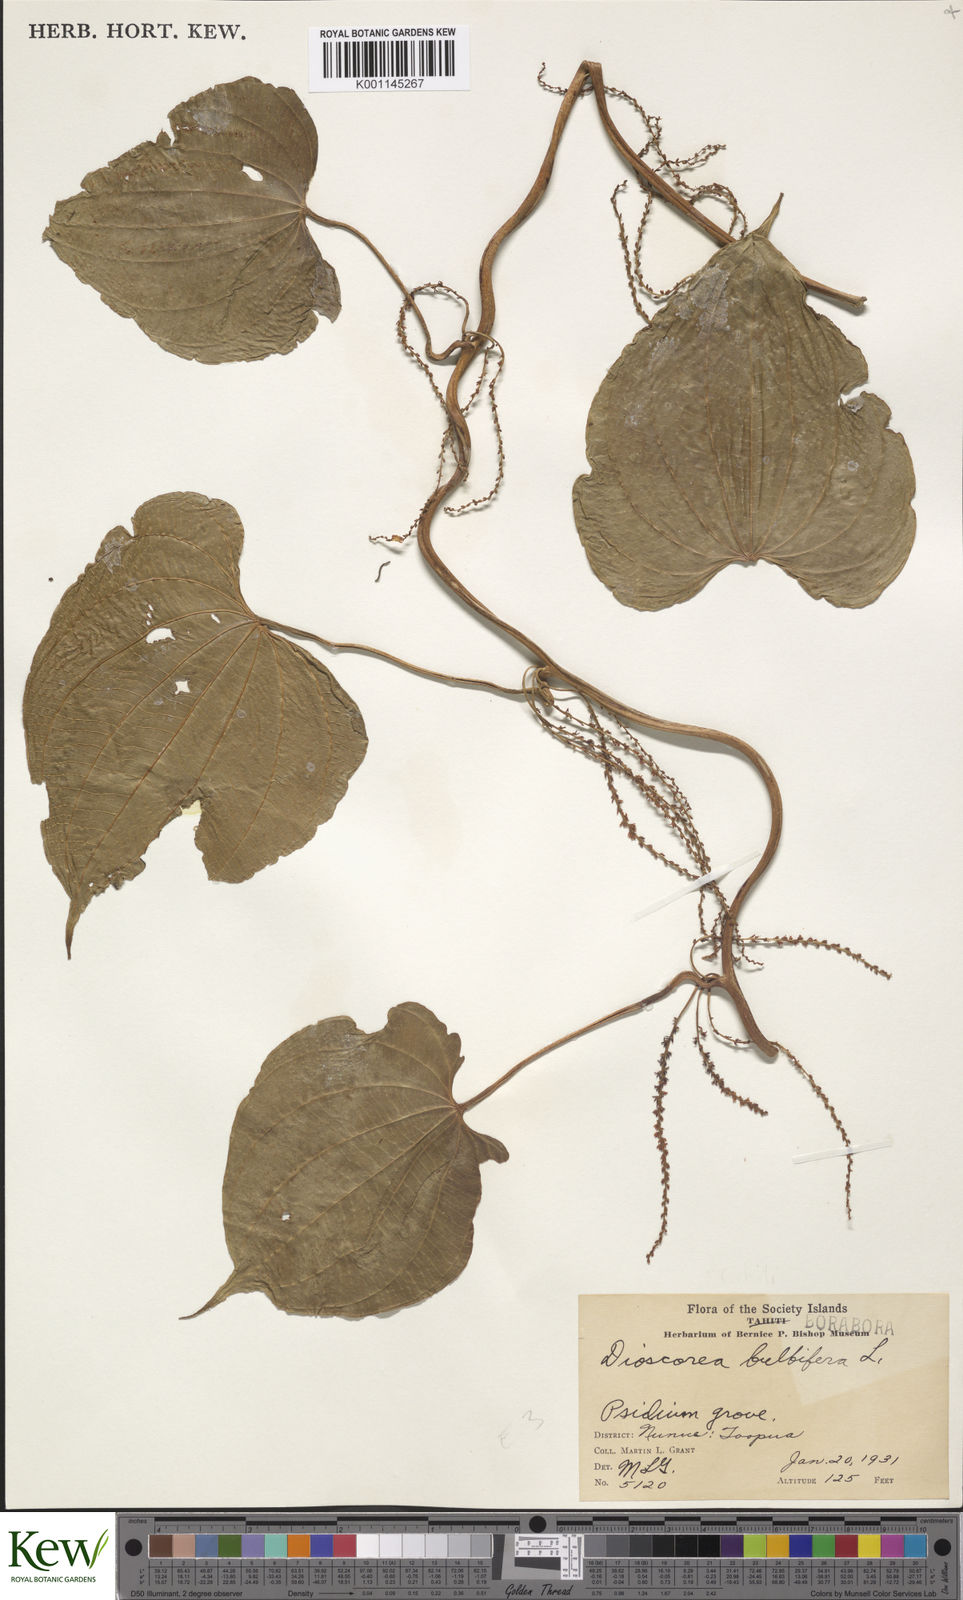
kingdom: Plantae
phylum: Tracheophyta
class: Liliopsida
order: Dioscoreales
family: Dioscoreaceae
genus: Dioscorea
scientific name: Dioscorea pentaphylla
